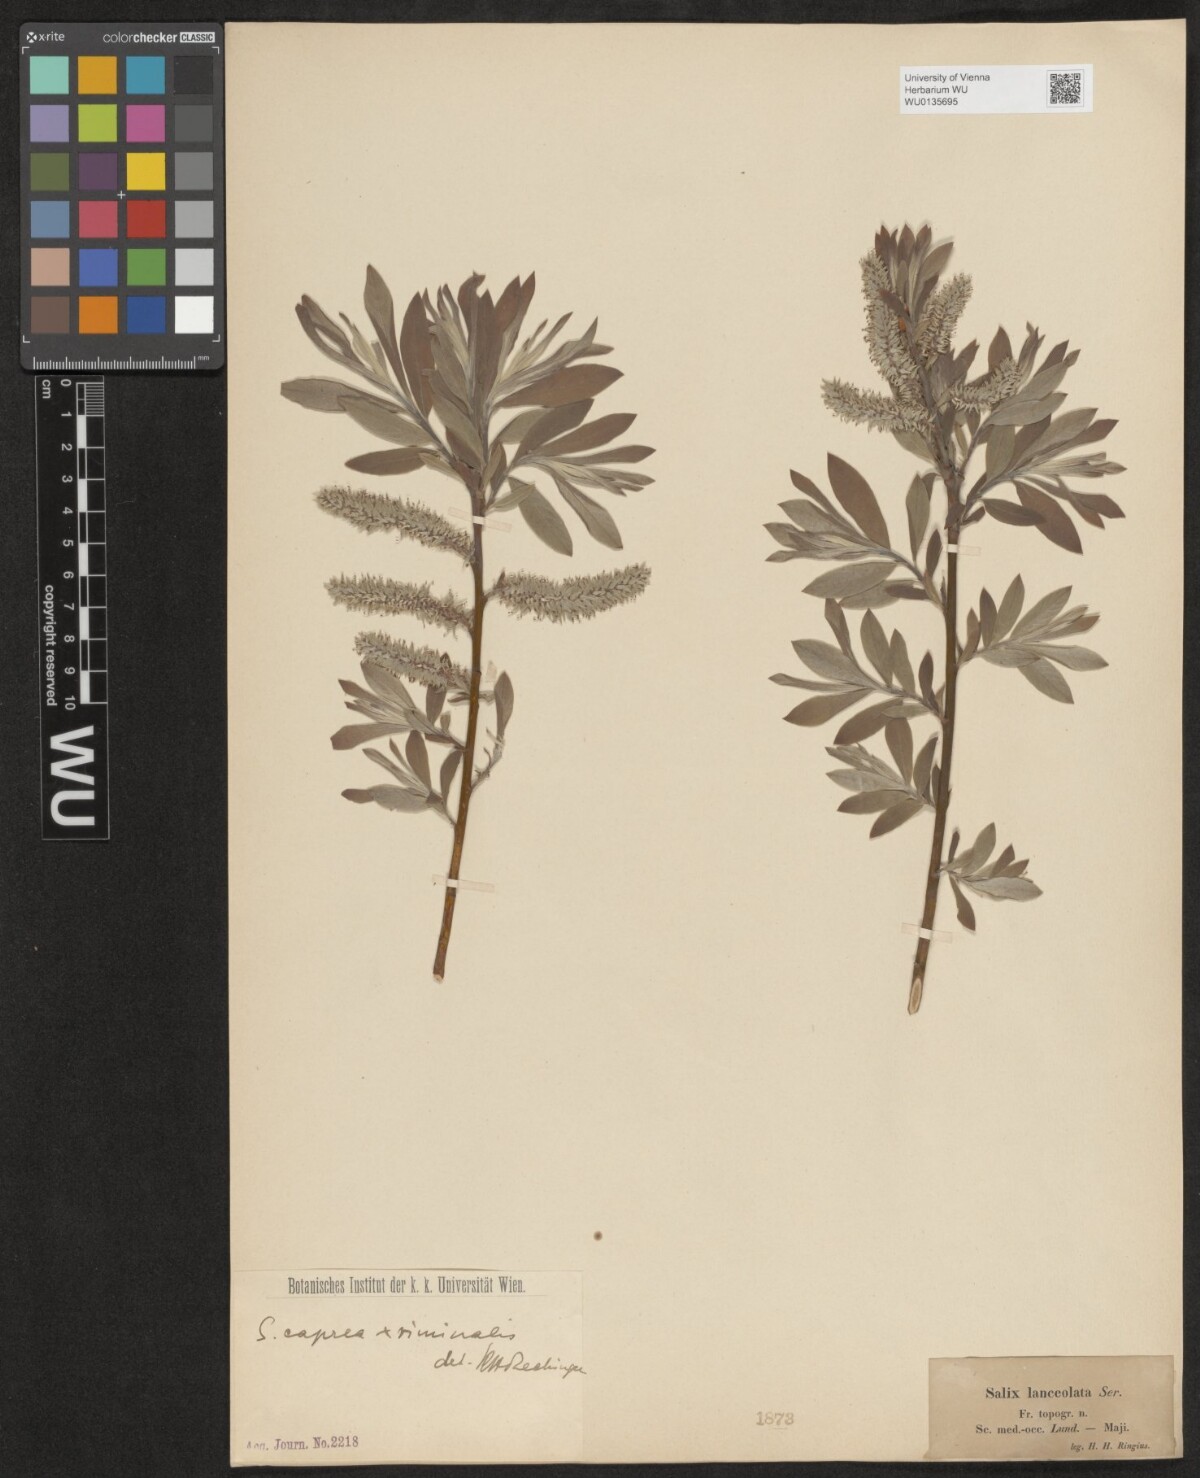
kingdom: Plantae
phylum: Tracheophyta
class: Magnoliopsida
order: Malpighiales
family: Salicaceae
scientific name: Salicaceae
